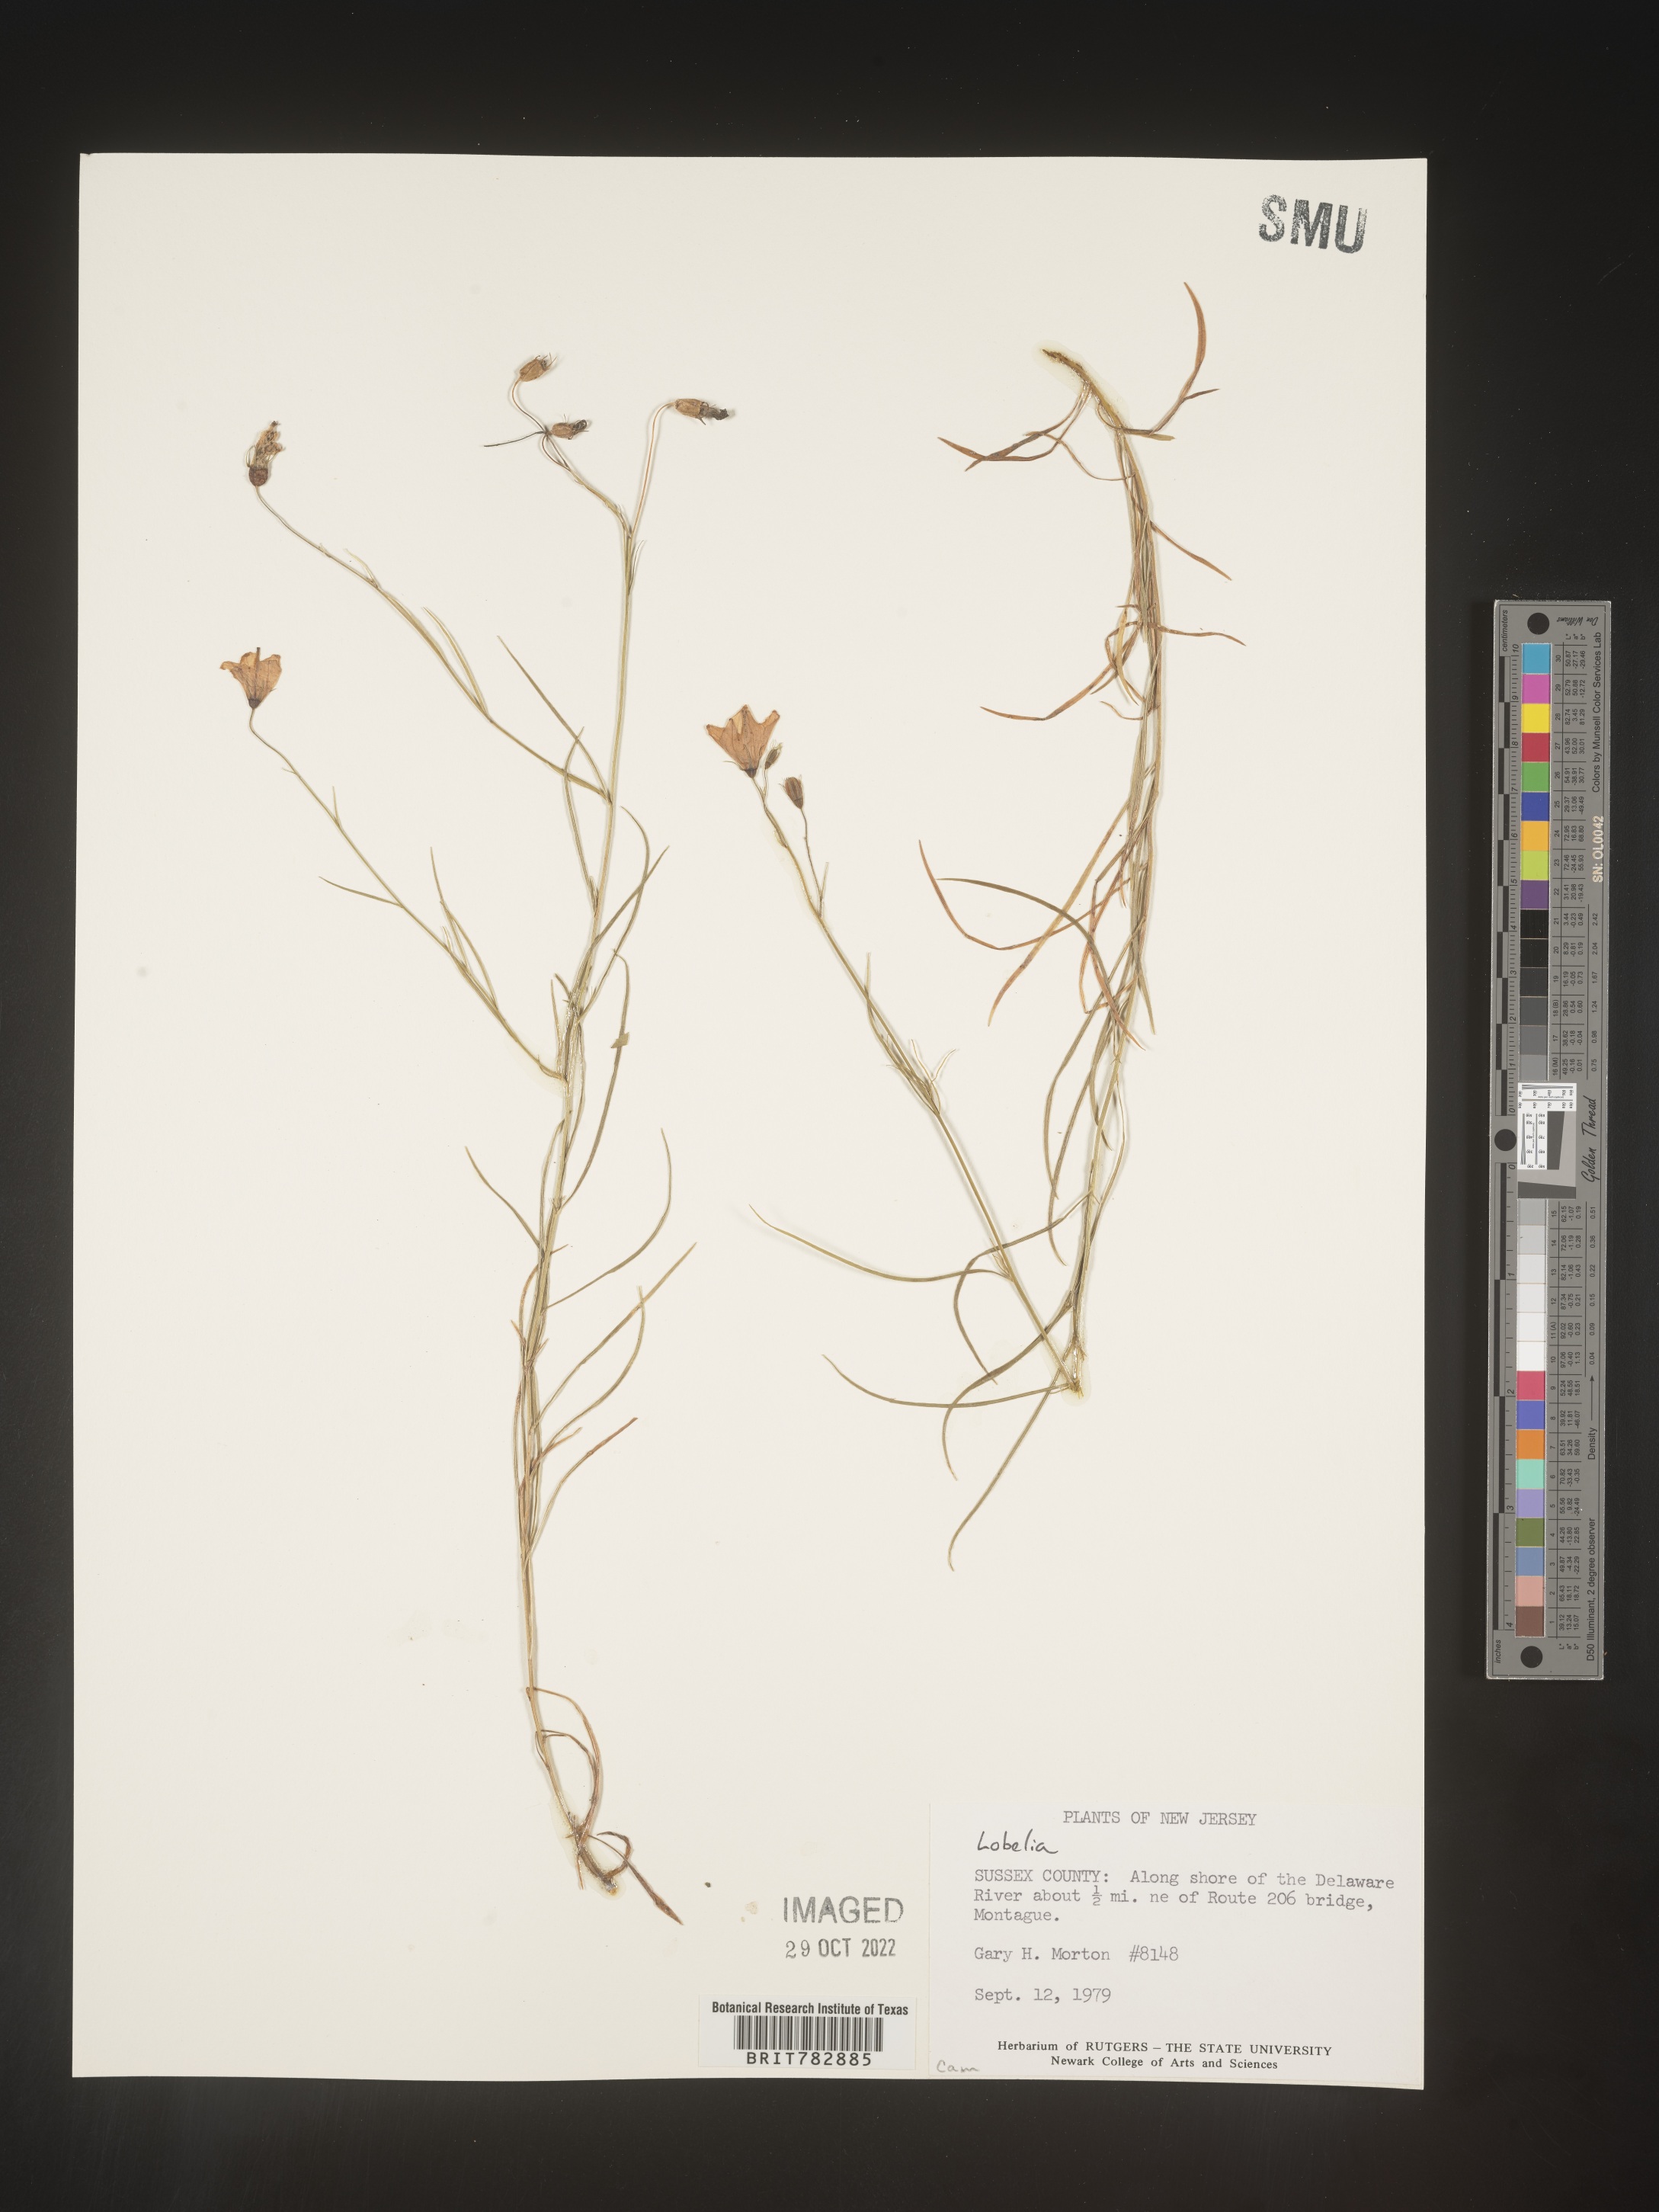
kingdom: Plantae
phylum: Tracheophyta
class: Magnoliopsida
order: Asterales
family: Campanulaceae
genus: Lobelia
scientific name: Lobelia
